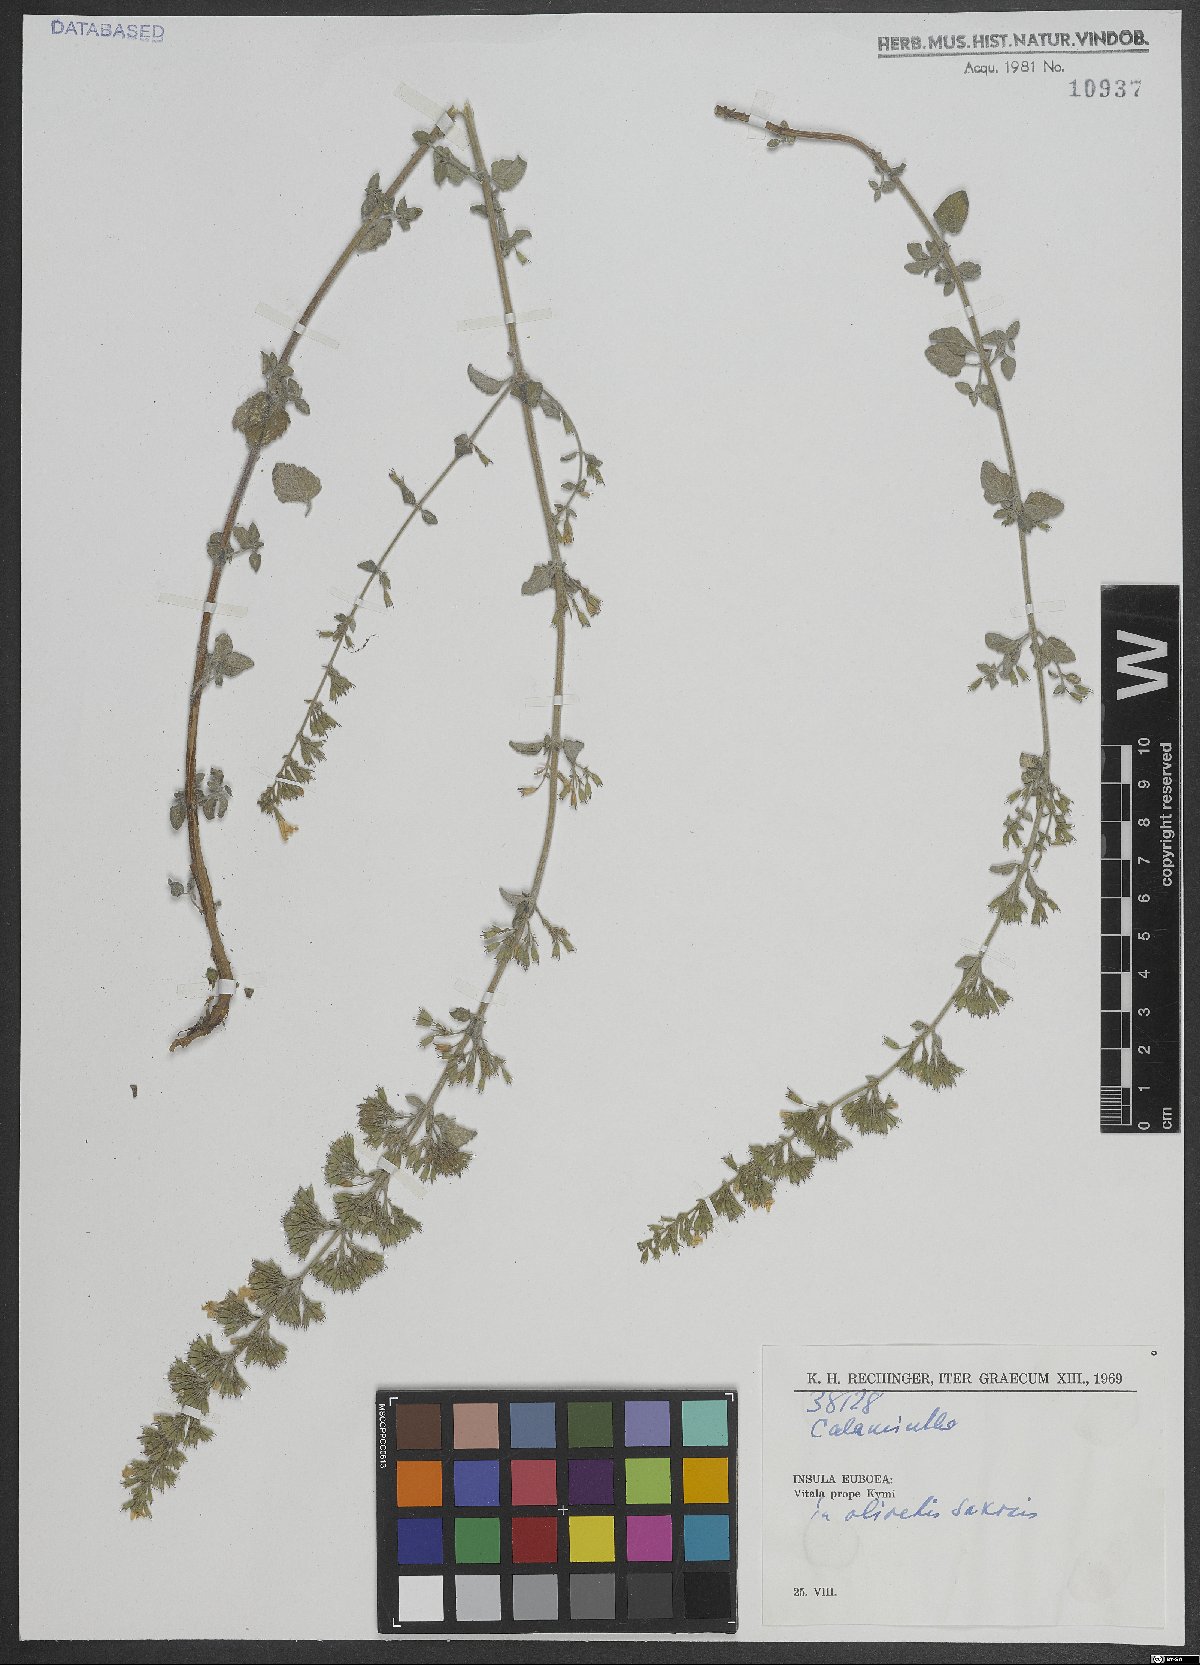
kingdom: Plantae
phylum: Tracheophyta
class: Magnoliopsida
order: Lamiales
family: Lamiaceae
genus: Calamintha
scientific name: Calamintha
